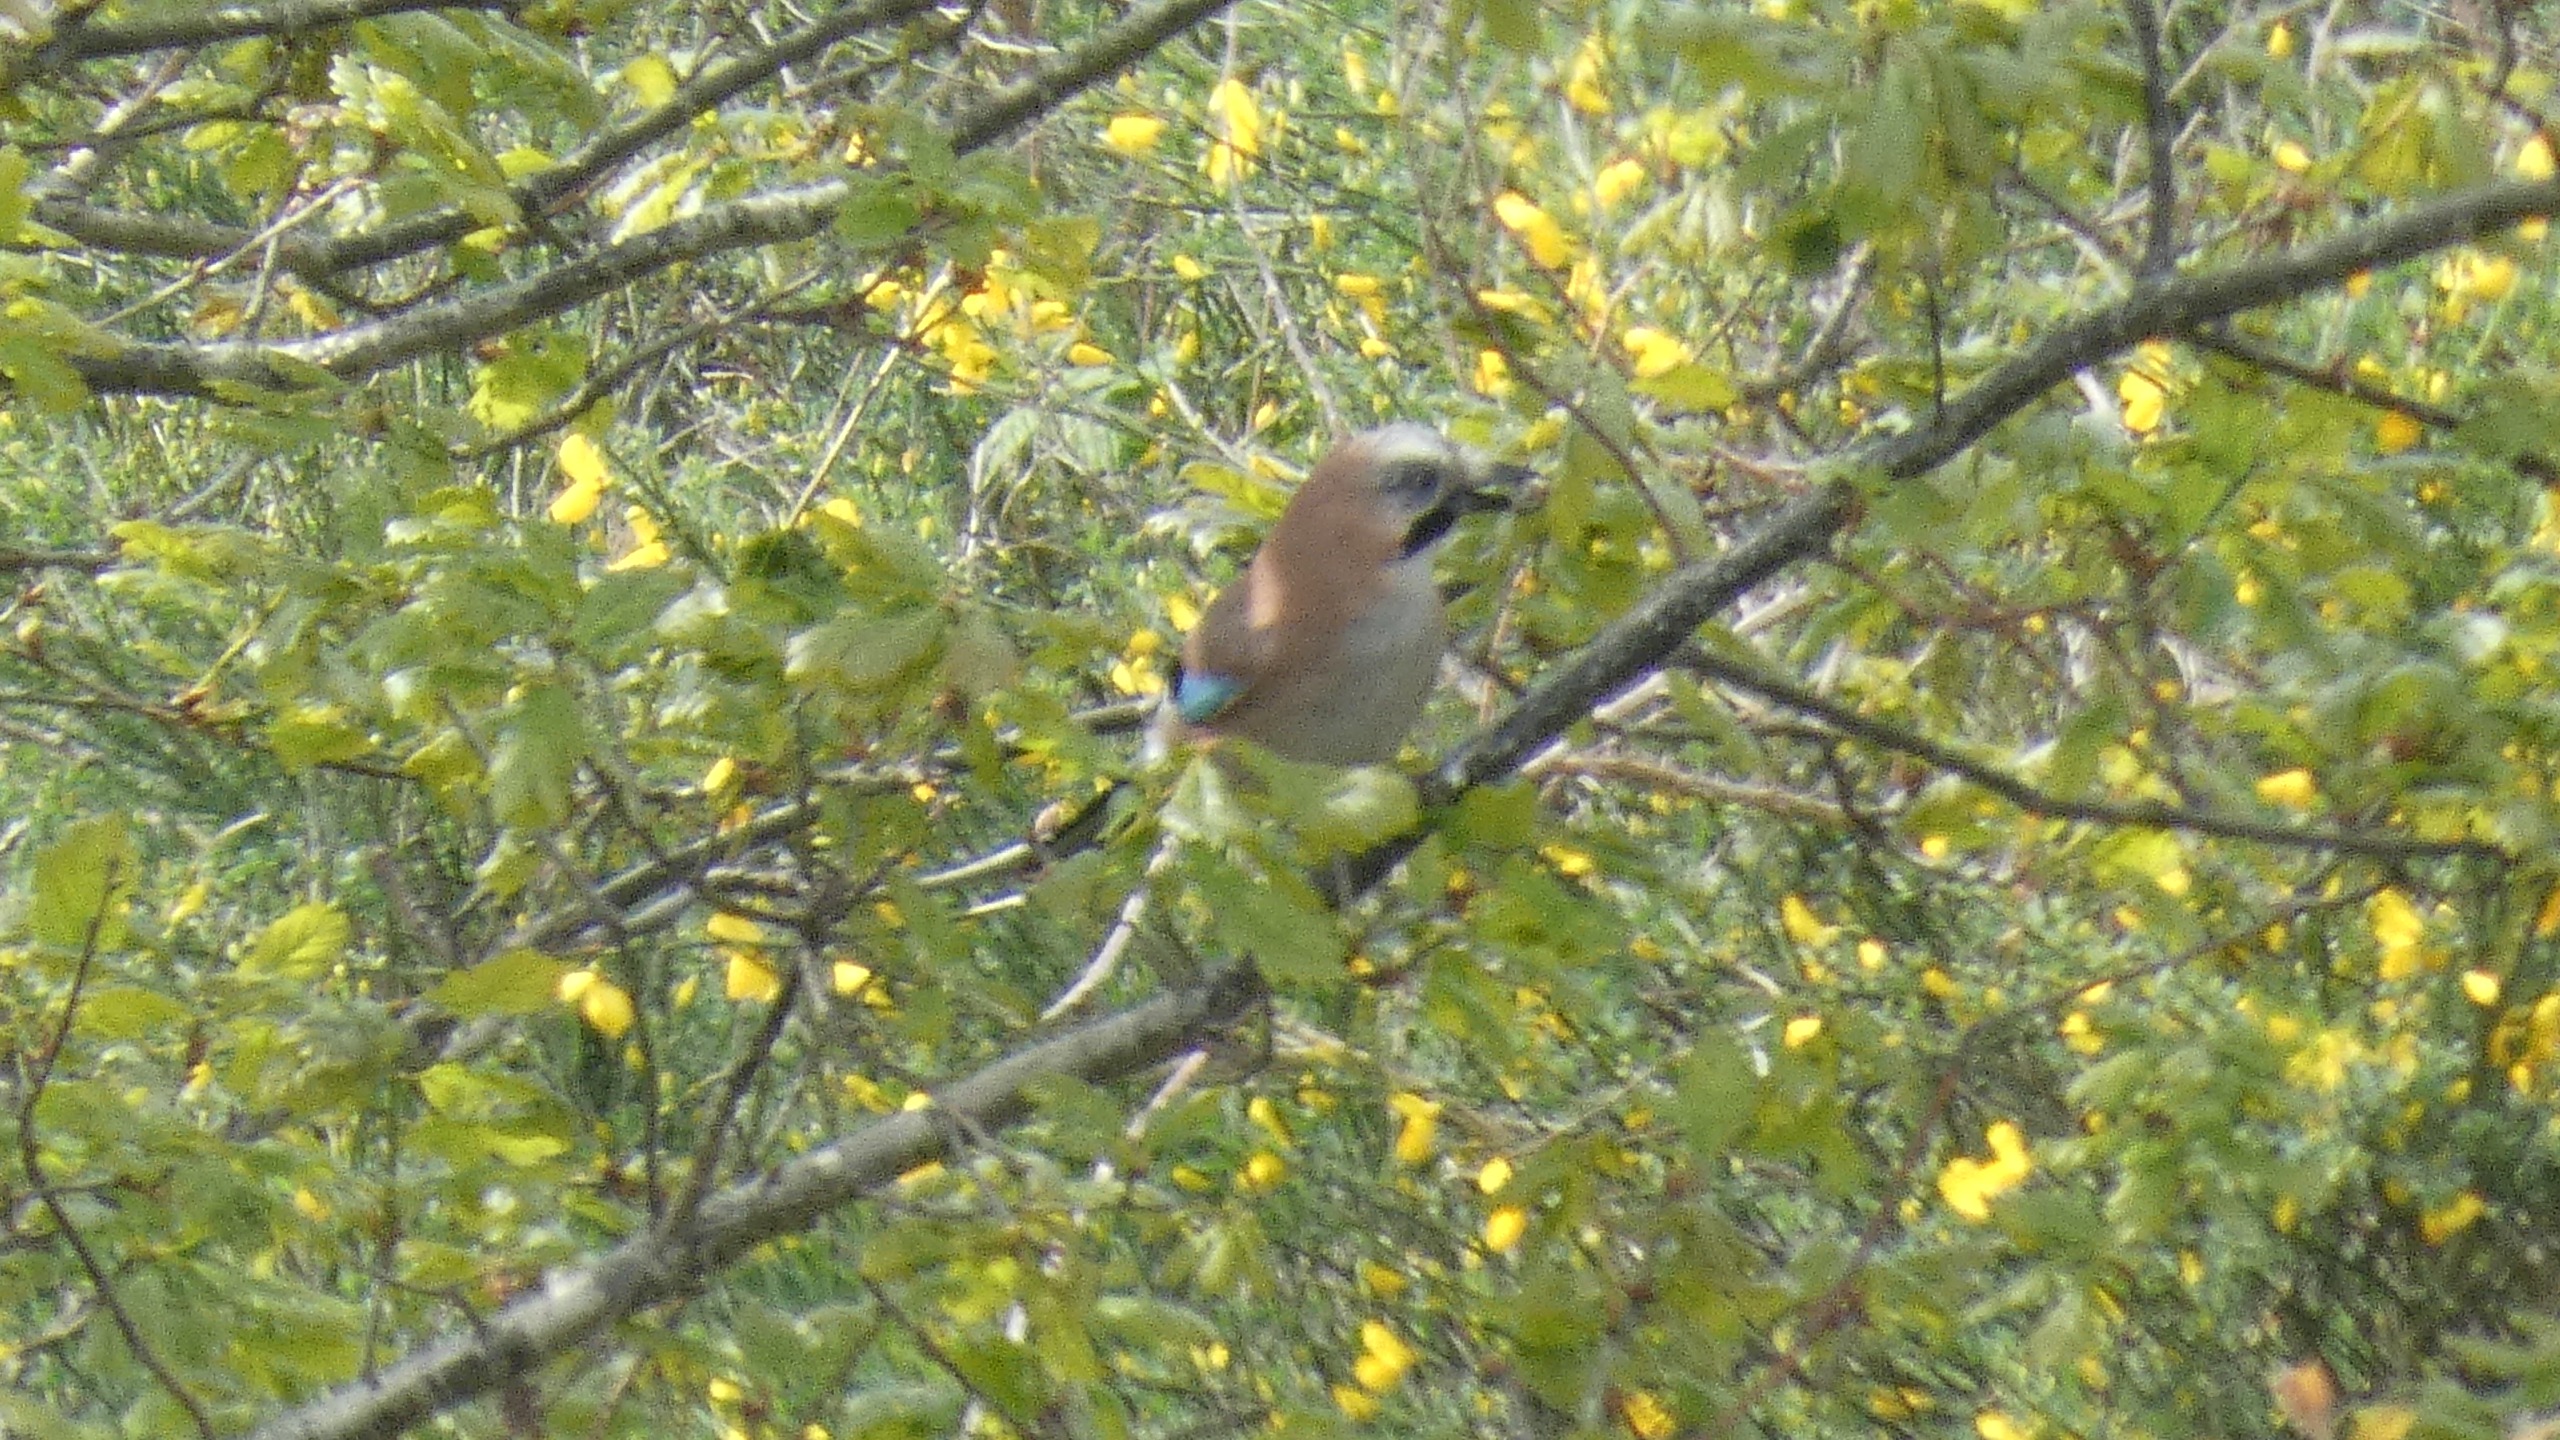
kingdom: Animalia
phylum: Chordata
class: Aves
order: Passeriformes
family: Corvidae
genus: Garrulus
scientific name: Garrulus glandarius
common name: Skovskade
